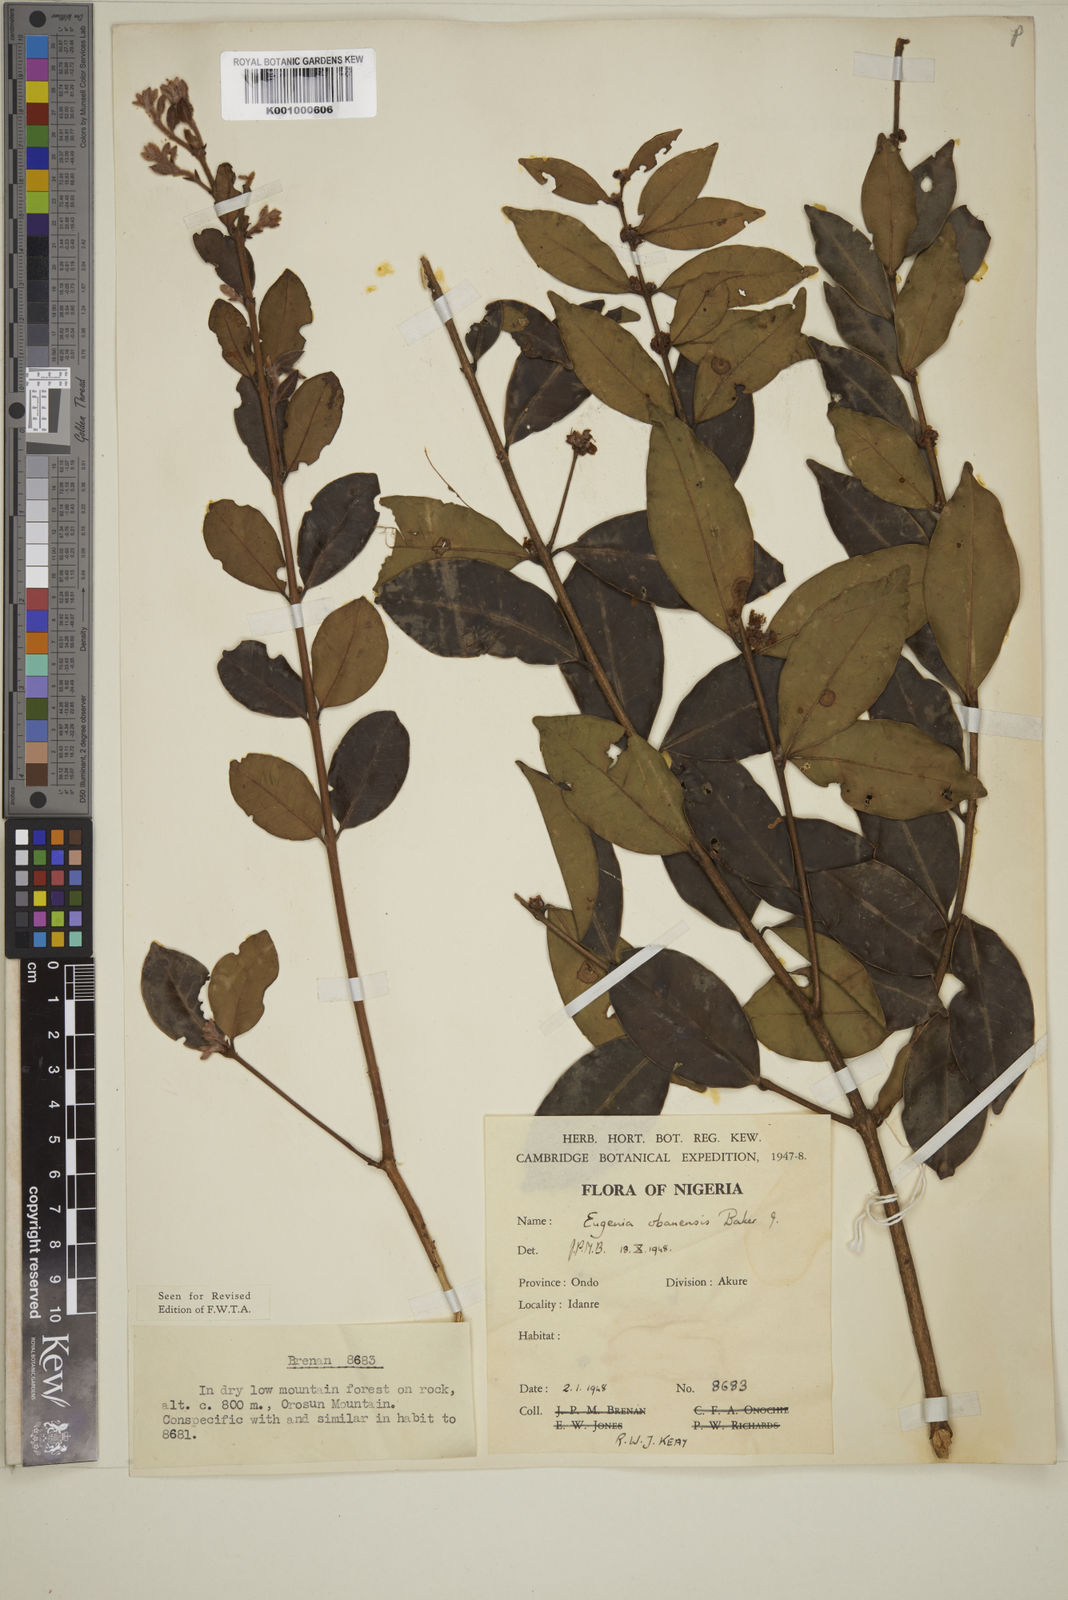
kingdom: Plantae
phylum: Tracheophyta
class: Magnoliopsida
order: Myrtales
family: Myrtaceae
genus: Eugenia
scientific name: Eugenia obanensis
